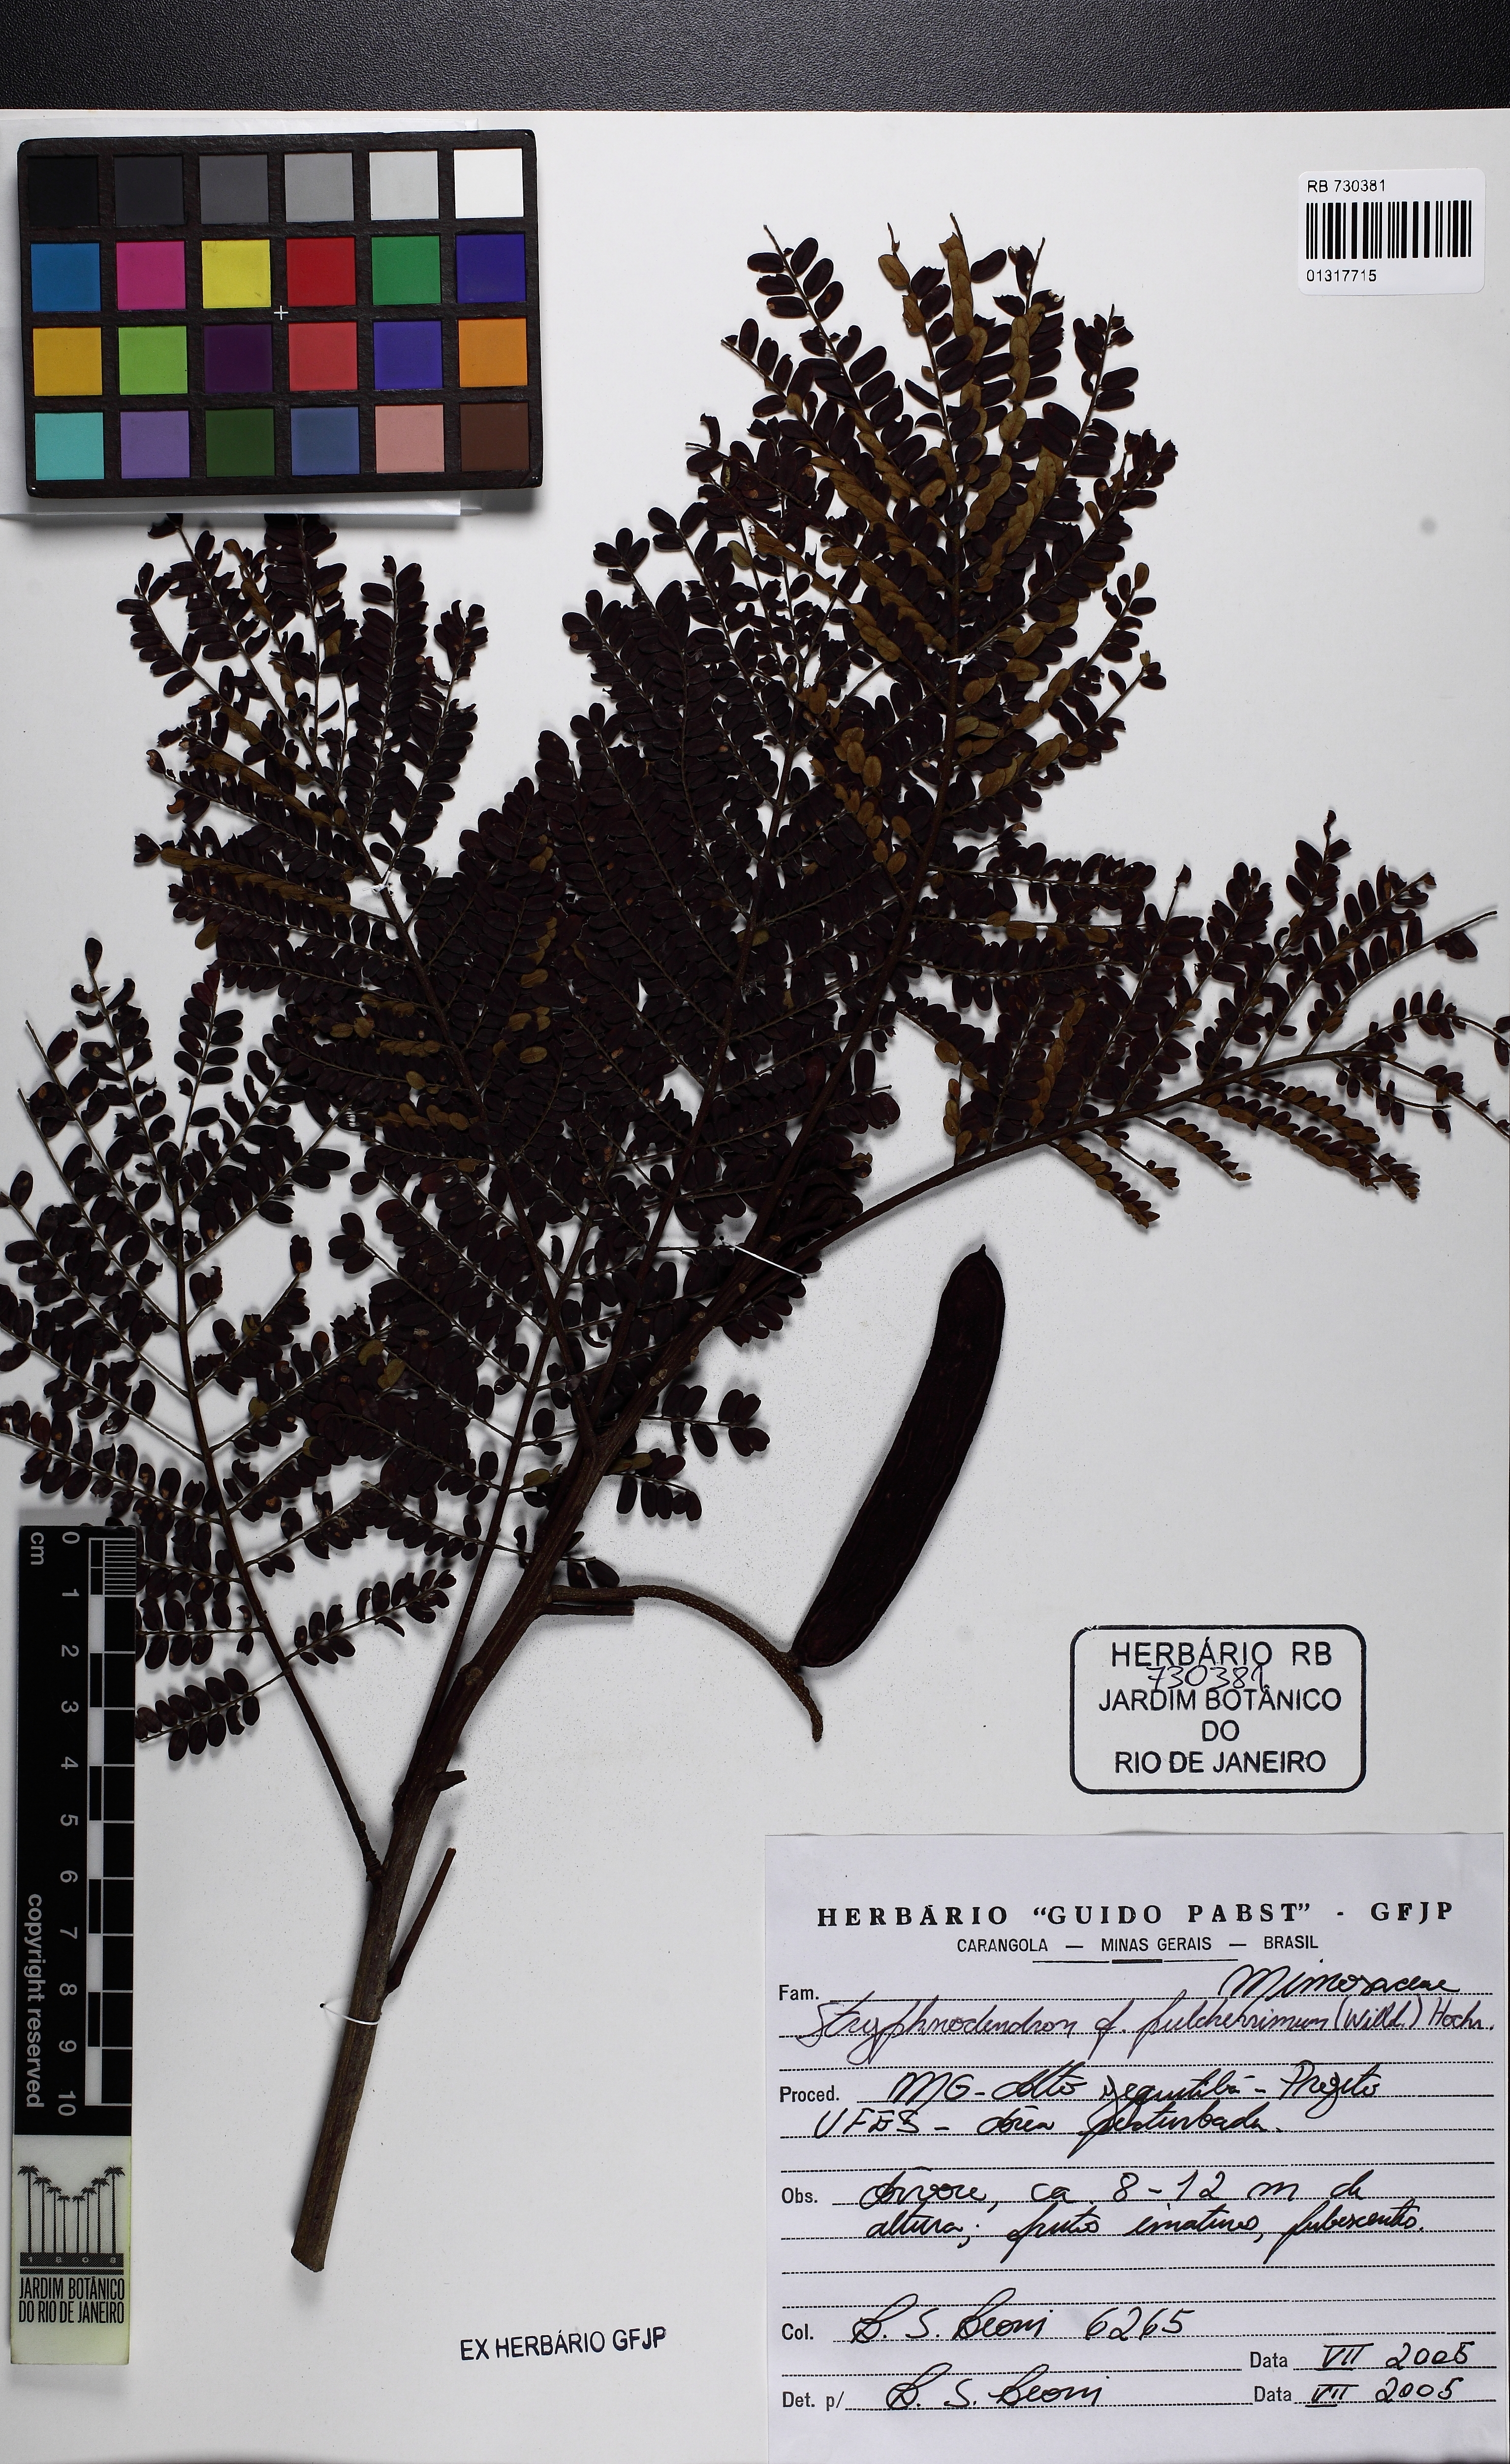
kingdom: Plantae
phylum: Tracheophyta
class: Magnoliopsida
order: Fabales
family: Fabaceae
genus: Stryphnodendron
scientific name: Stryphnodendron pulcherrimum
